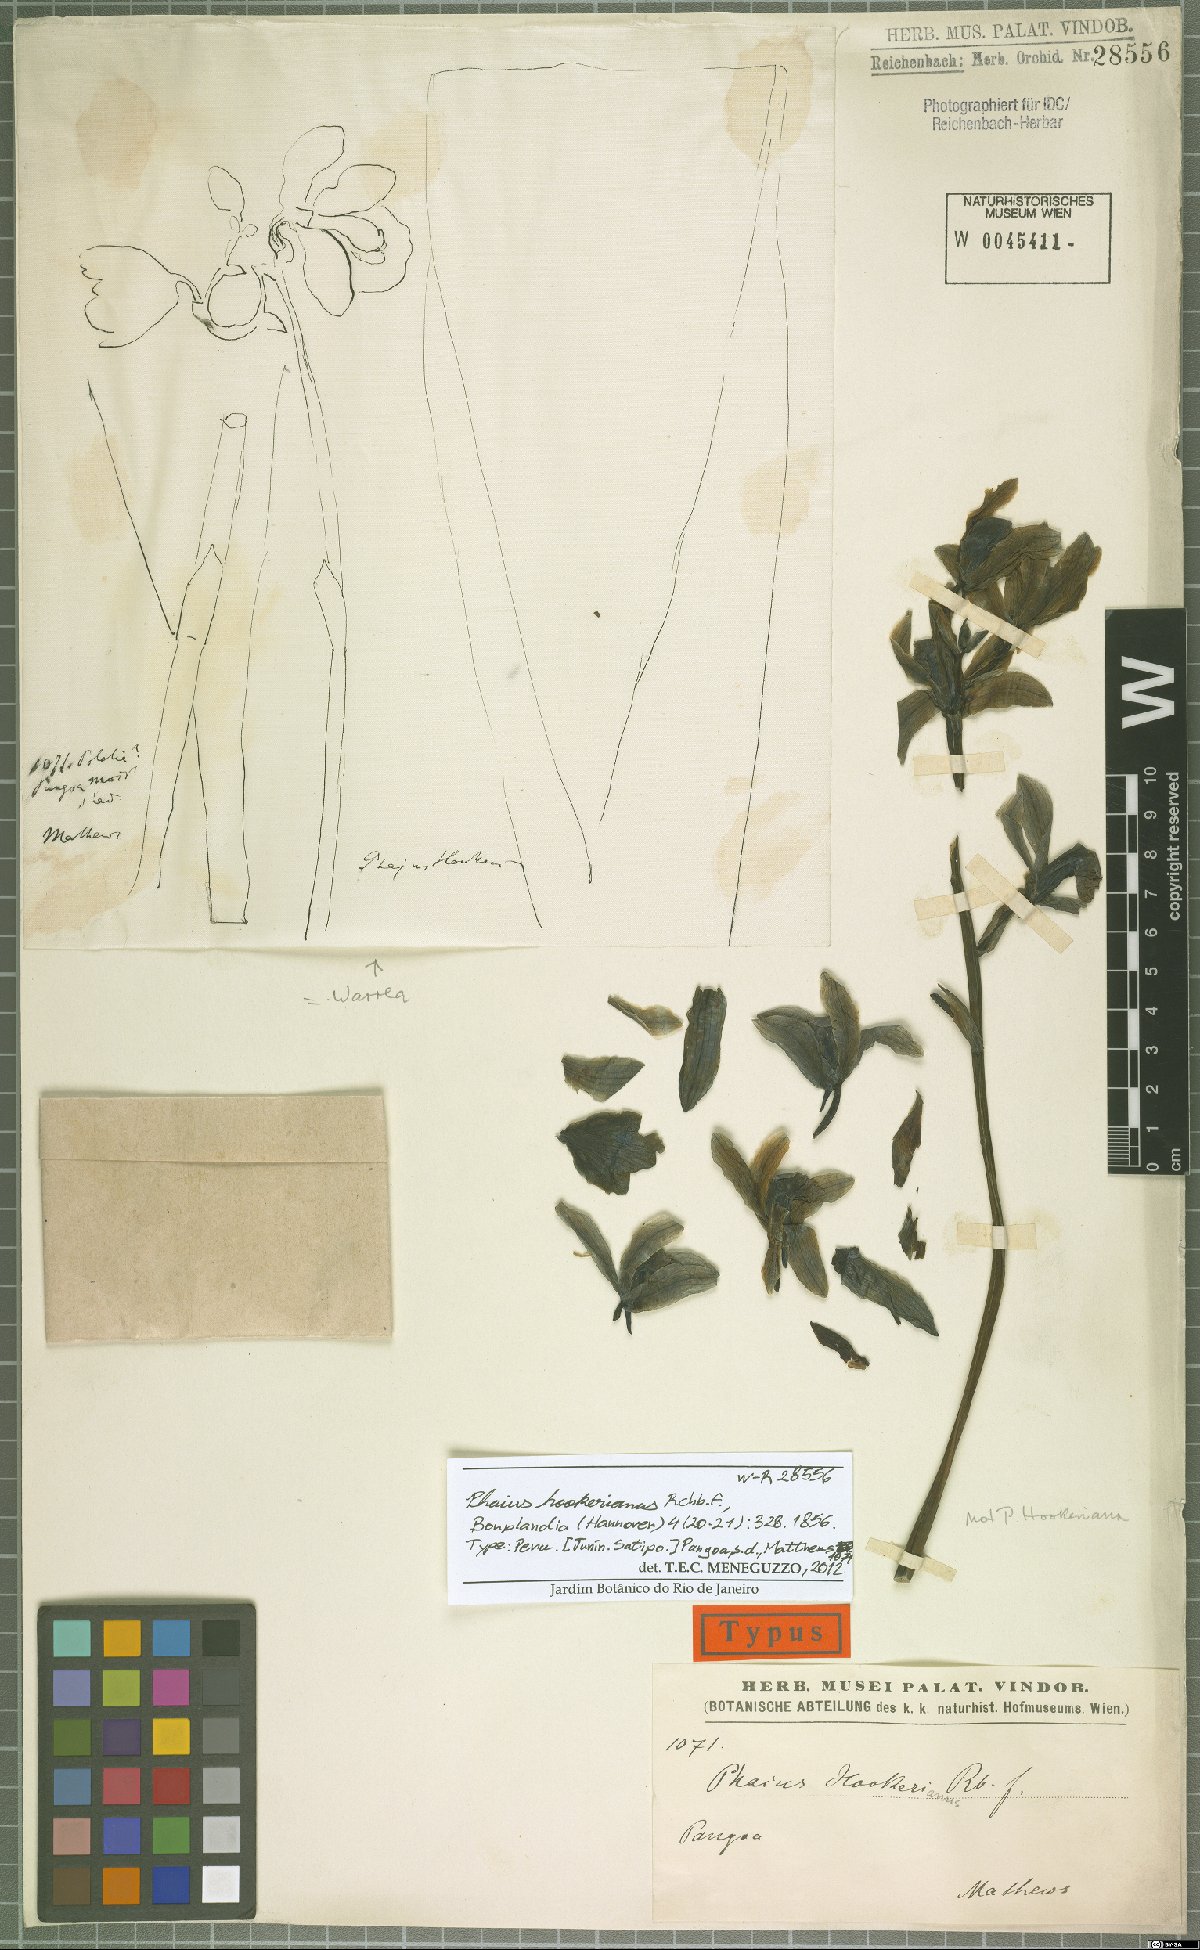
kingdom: Plantae
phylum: Tracheophyta
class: Liliopsida
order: Asparagales
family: Orchidaceae
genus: Warrea
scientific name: Warrea hookeriana
